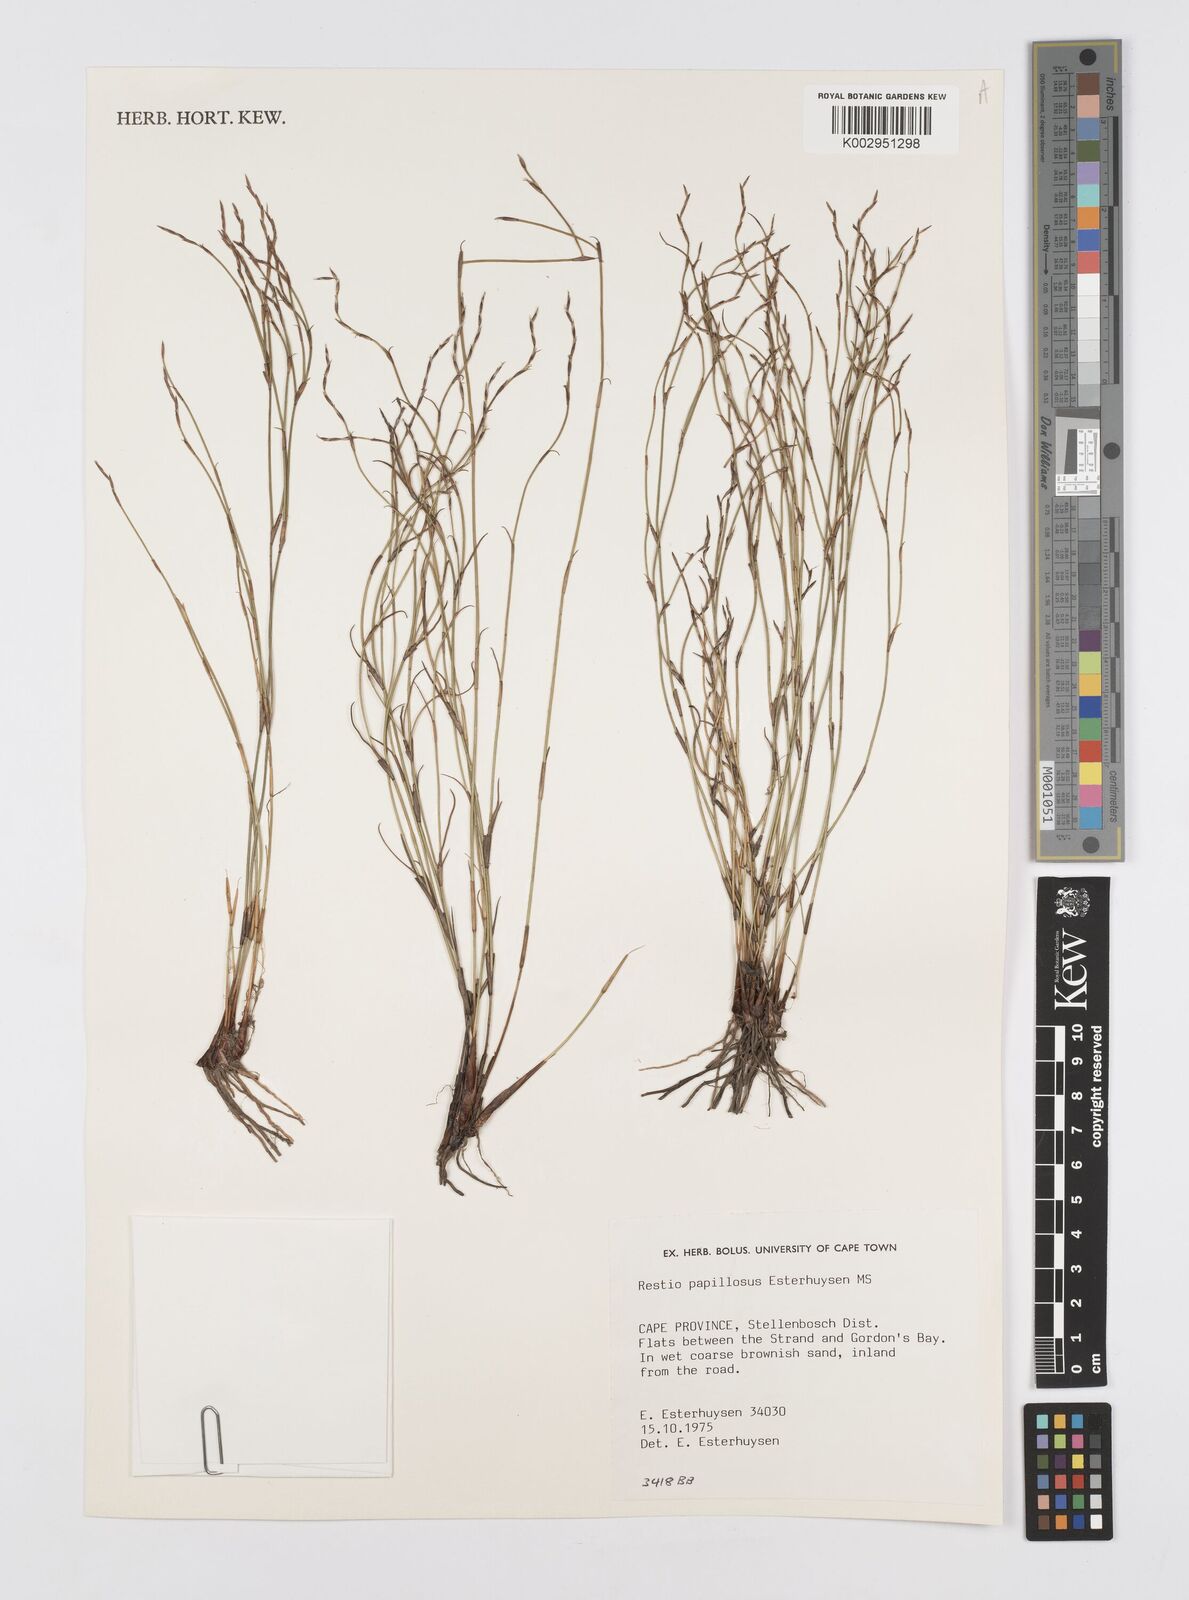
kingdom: Plantae
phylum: Tracheophyta
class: Liliopsida
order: Poales
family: Restionaceae
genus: Restio
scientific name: Restio papillosus
